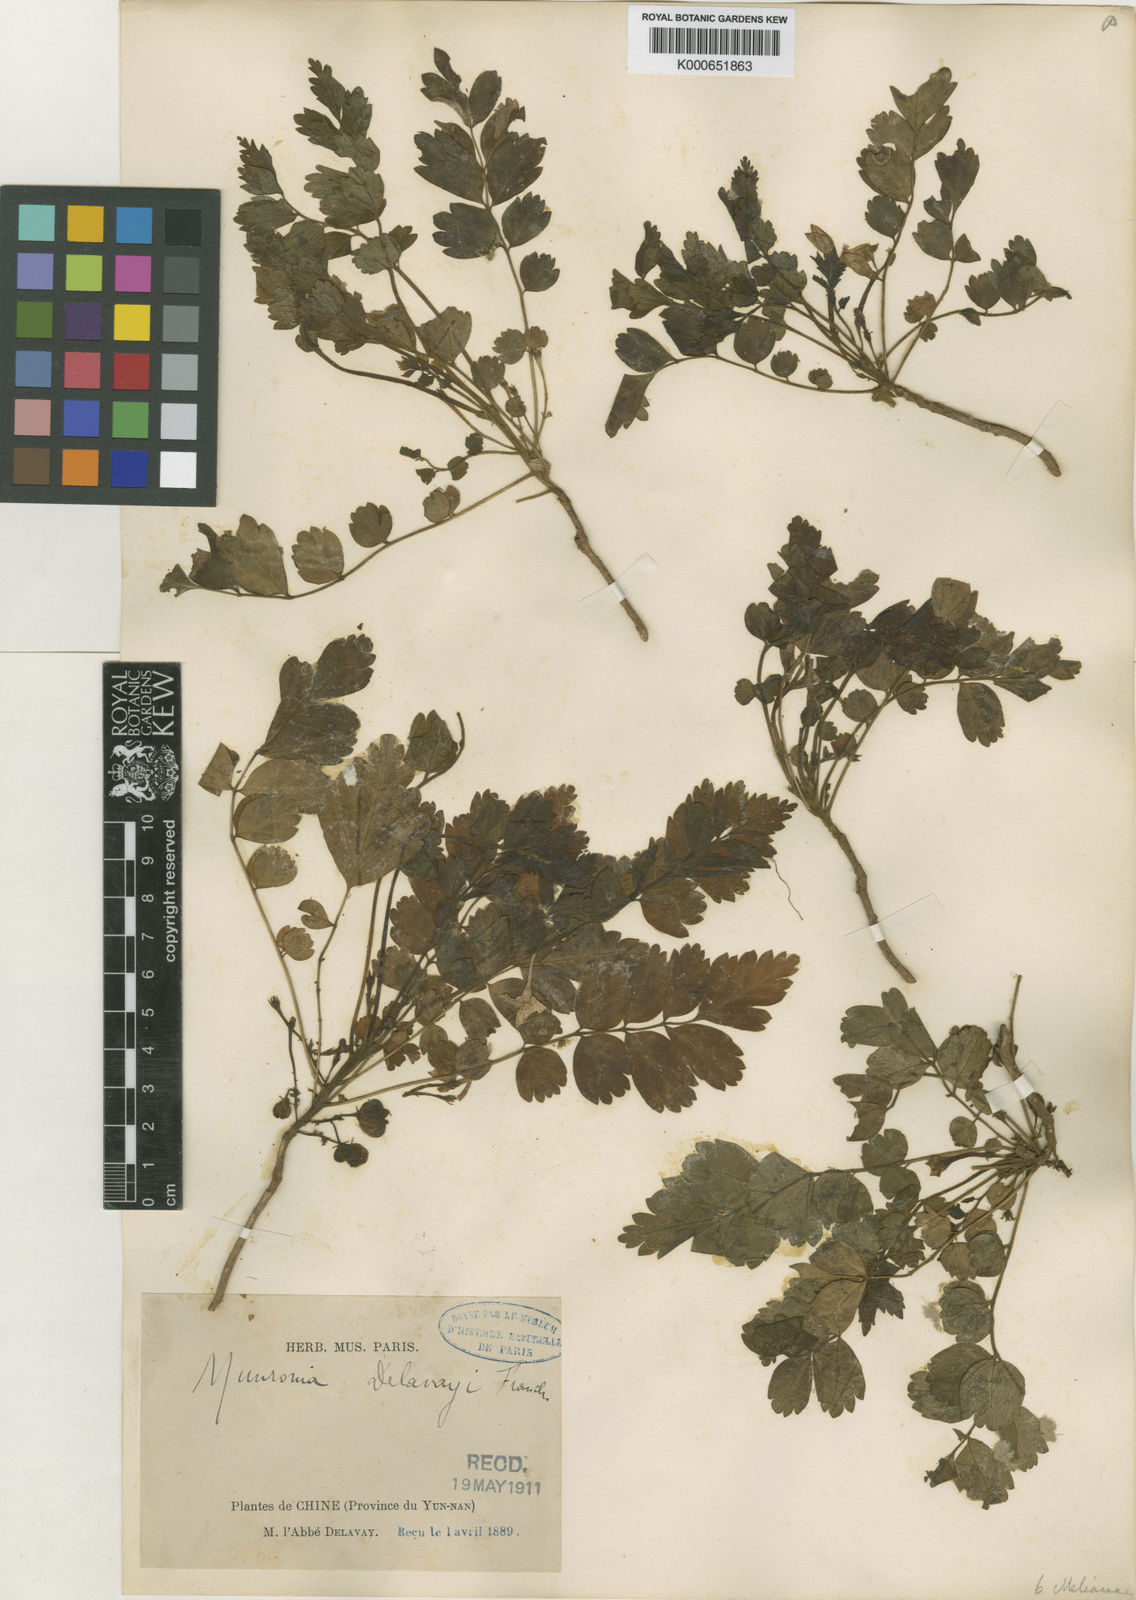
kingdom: Plantae
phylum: Tracheophyta
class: Magnoliopsida
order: Sapindales
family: Meliaceae
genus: Munronia
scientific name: Munronia pinnata
